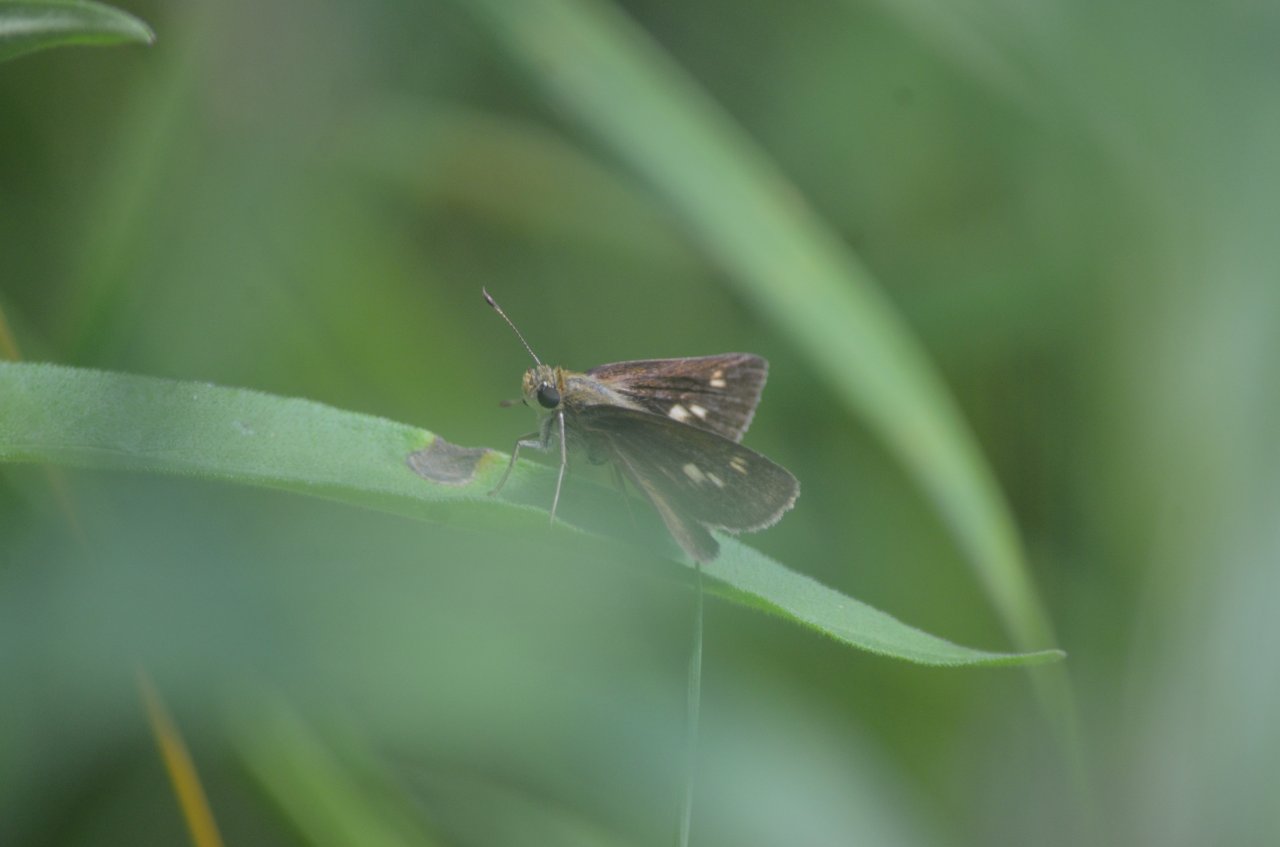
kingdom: Animalia
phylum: Arthropoda
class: Insecta
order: Lepidoptera
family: Hesperiidae
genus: Euphyes
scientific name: Euphyes
